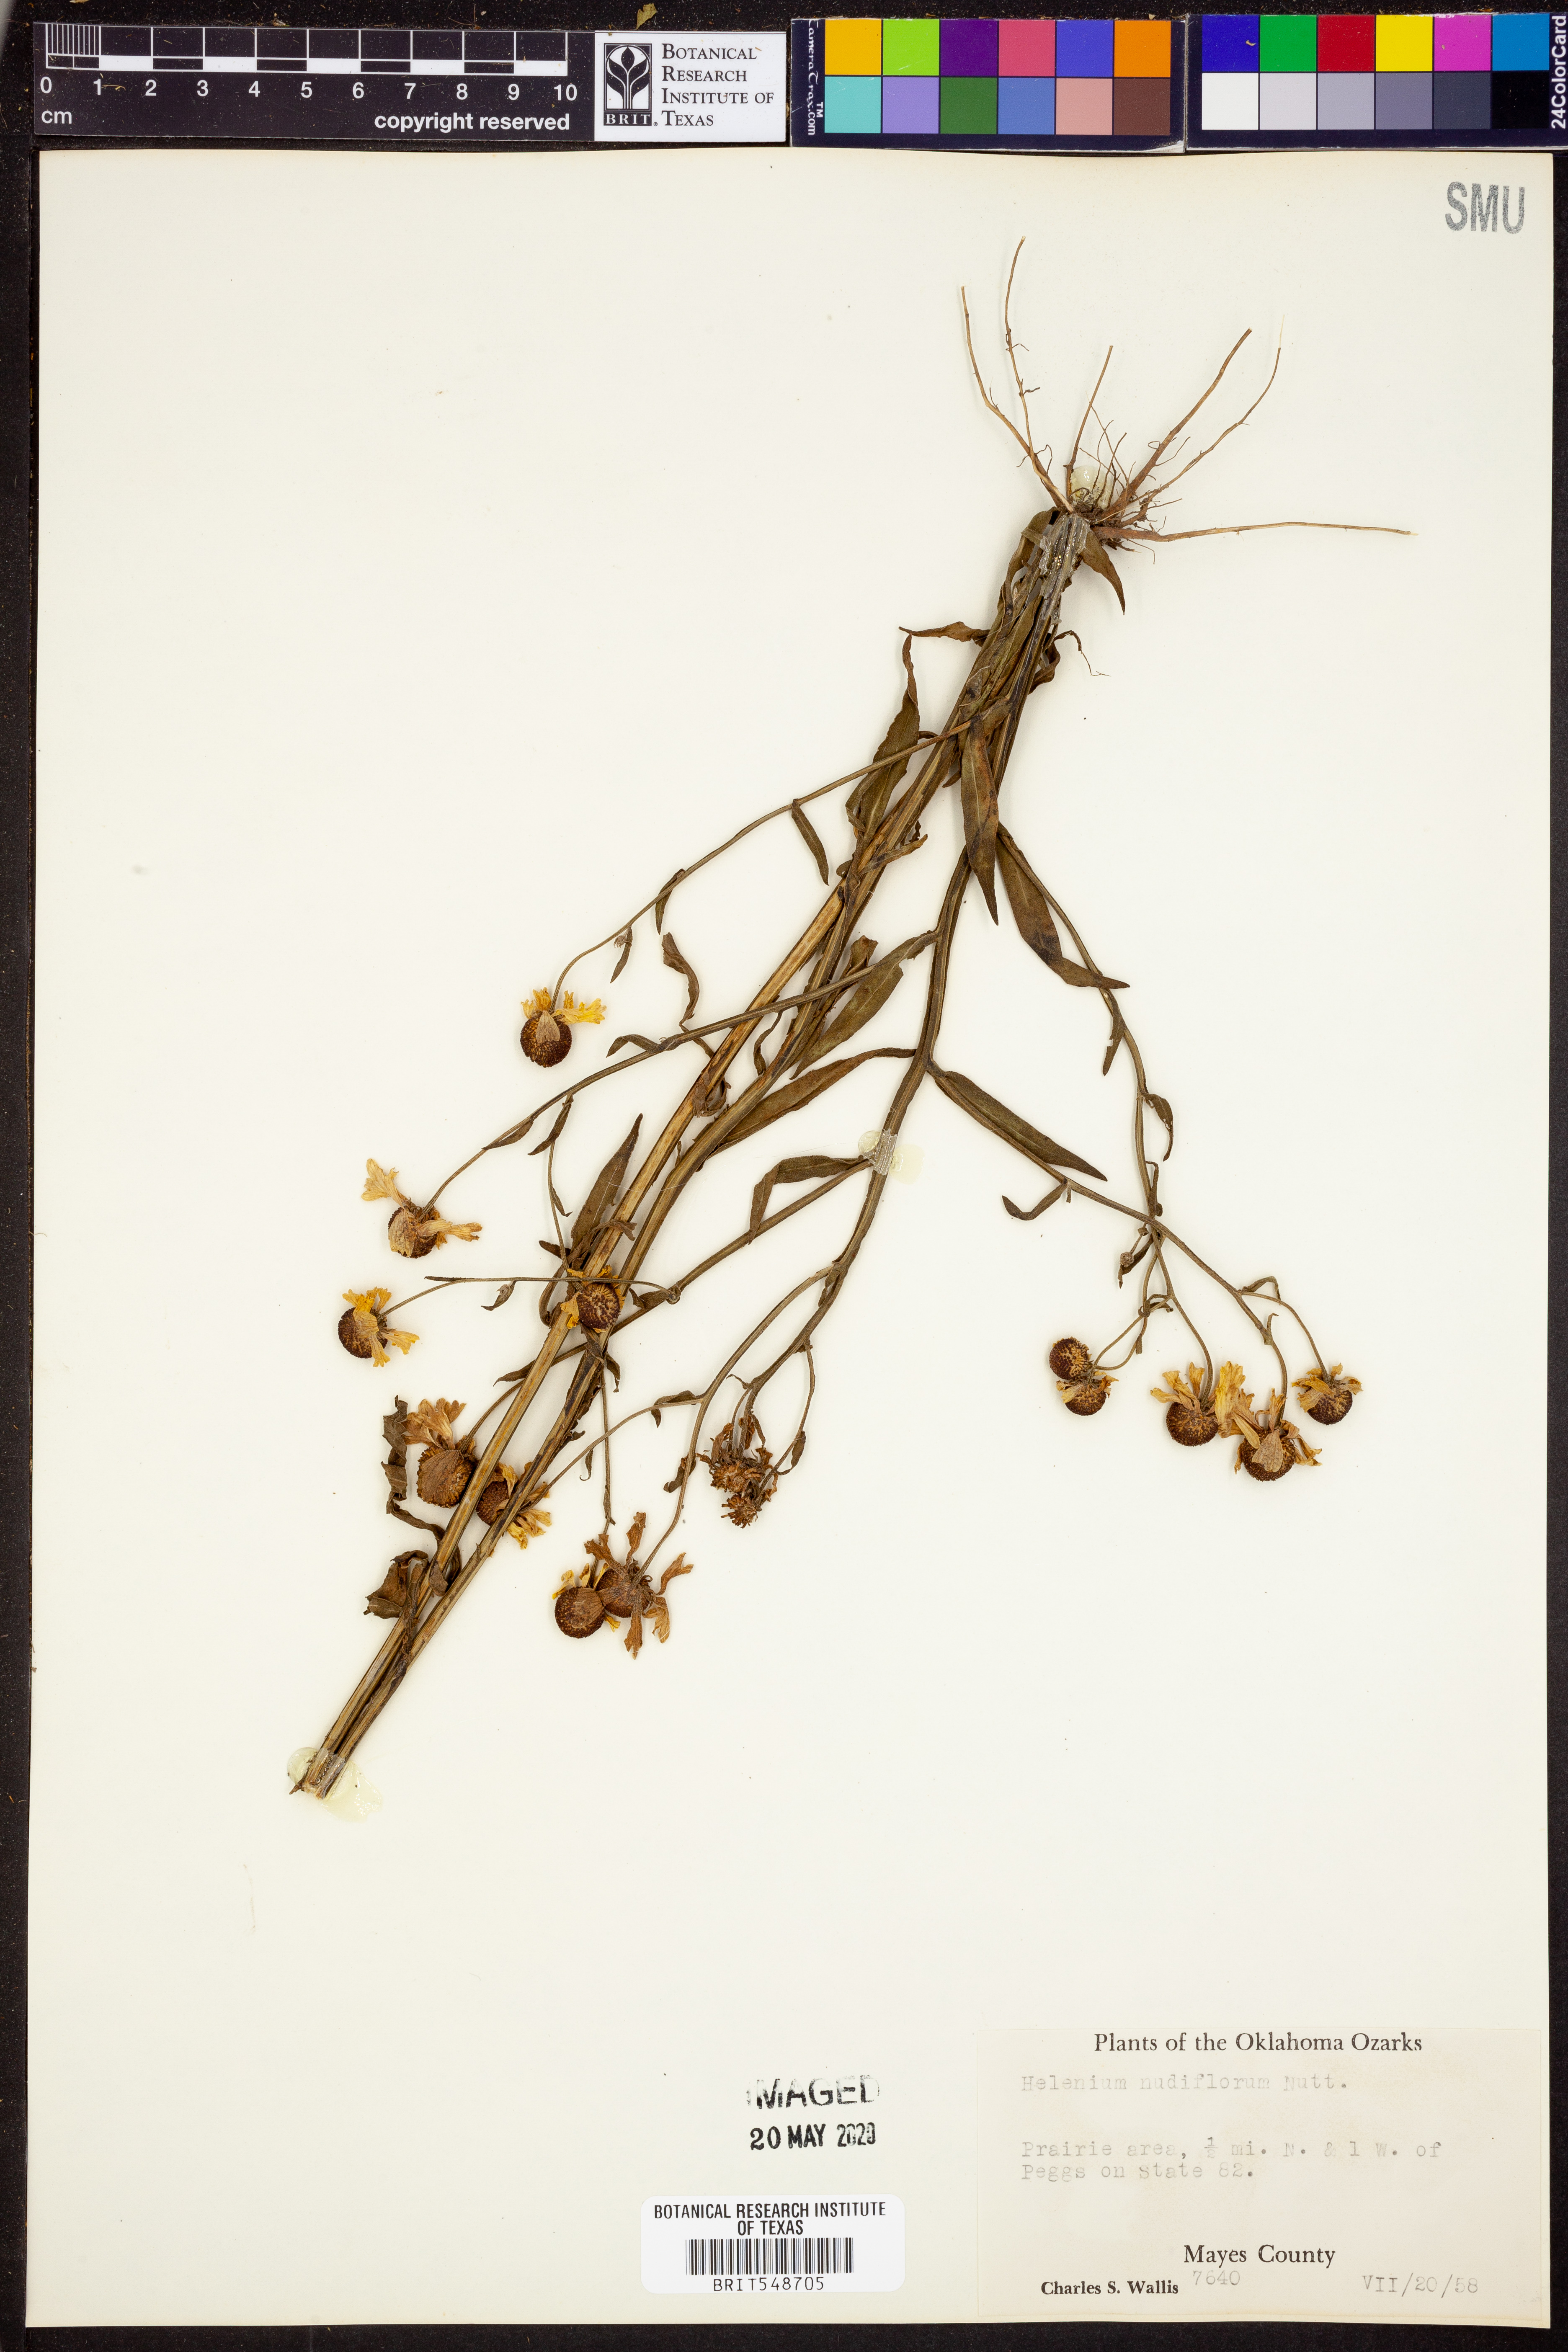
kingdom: Plantae
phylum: Tracheophyta
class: Magnoliopsida
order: Asterales
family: Asteraceae
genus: Helenium
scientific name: Helenium flexuosum
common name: Naked-flowered sneezeweed
